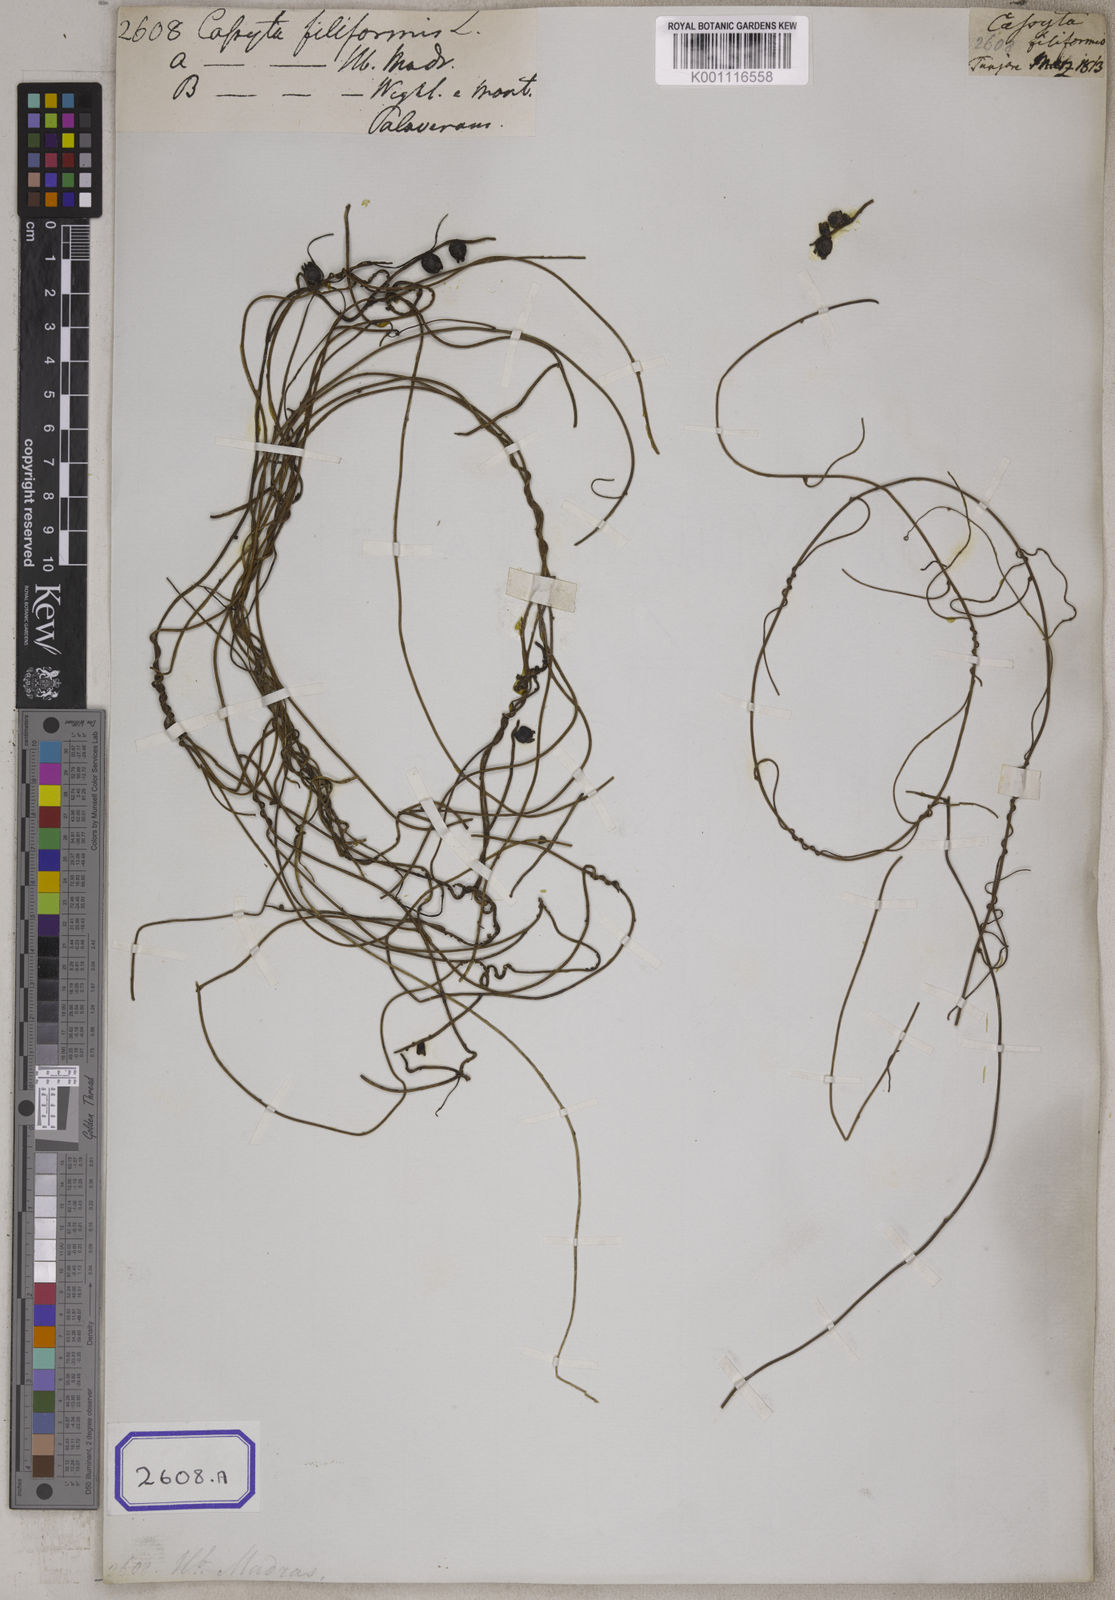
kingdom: Plantae
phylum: Tracheophyta
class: Magnoliopsida
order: Laurales
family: Lauraceae
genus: Cassytha
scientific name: Cassytha filiformis
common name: Dodder-laurel
